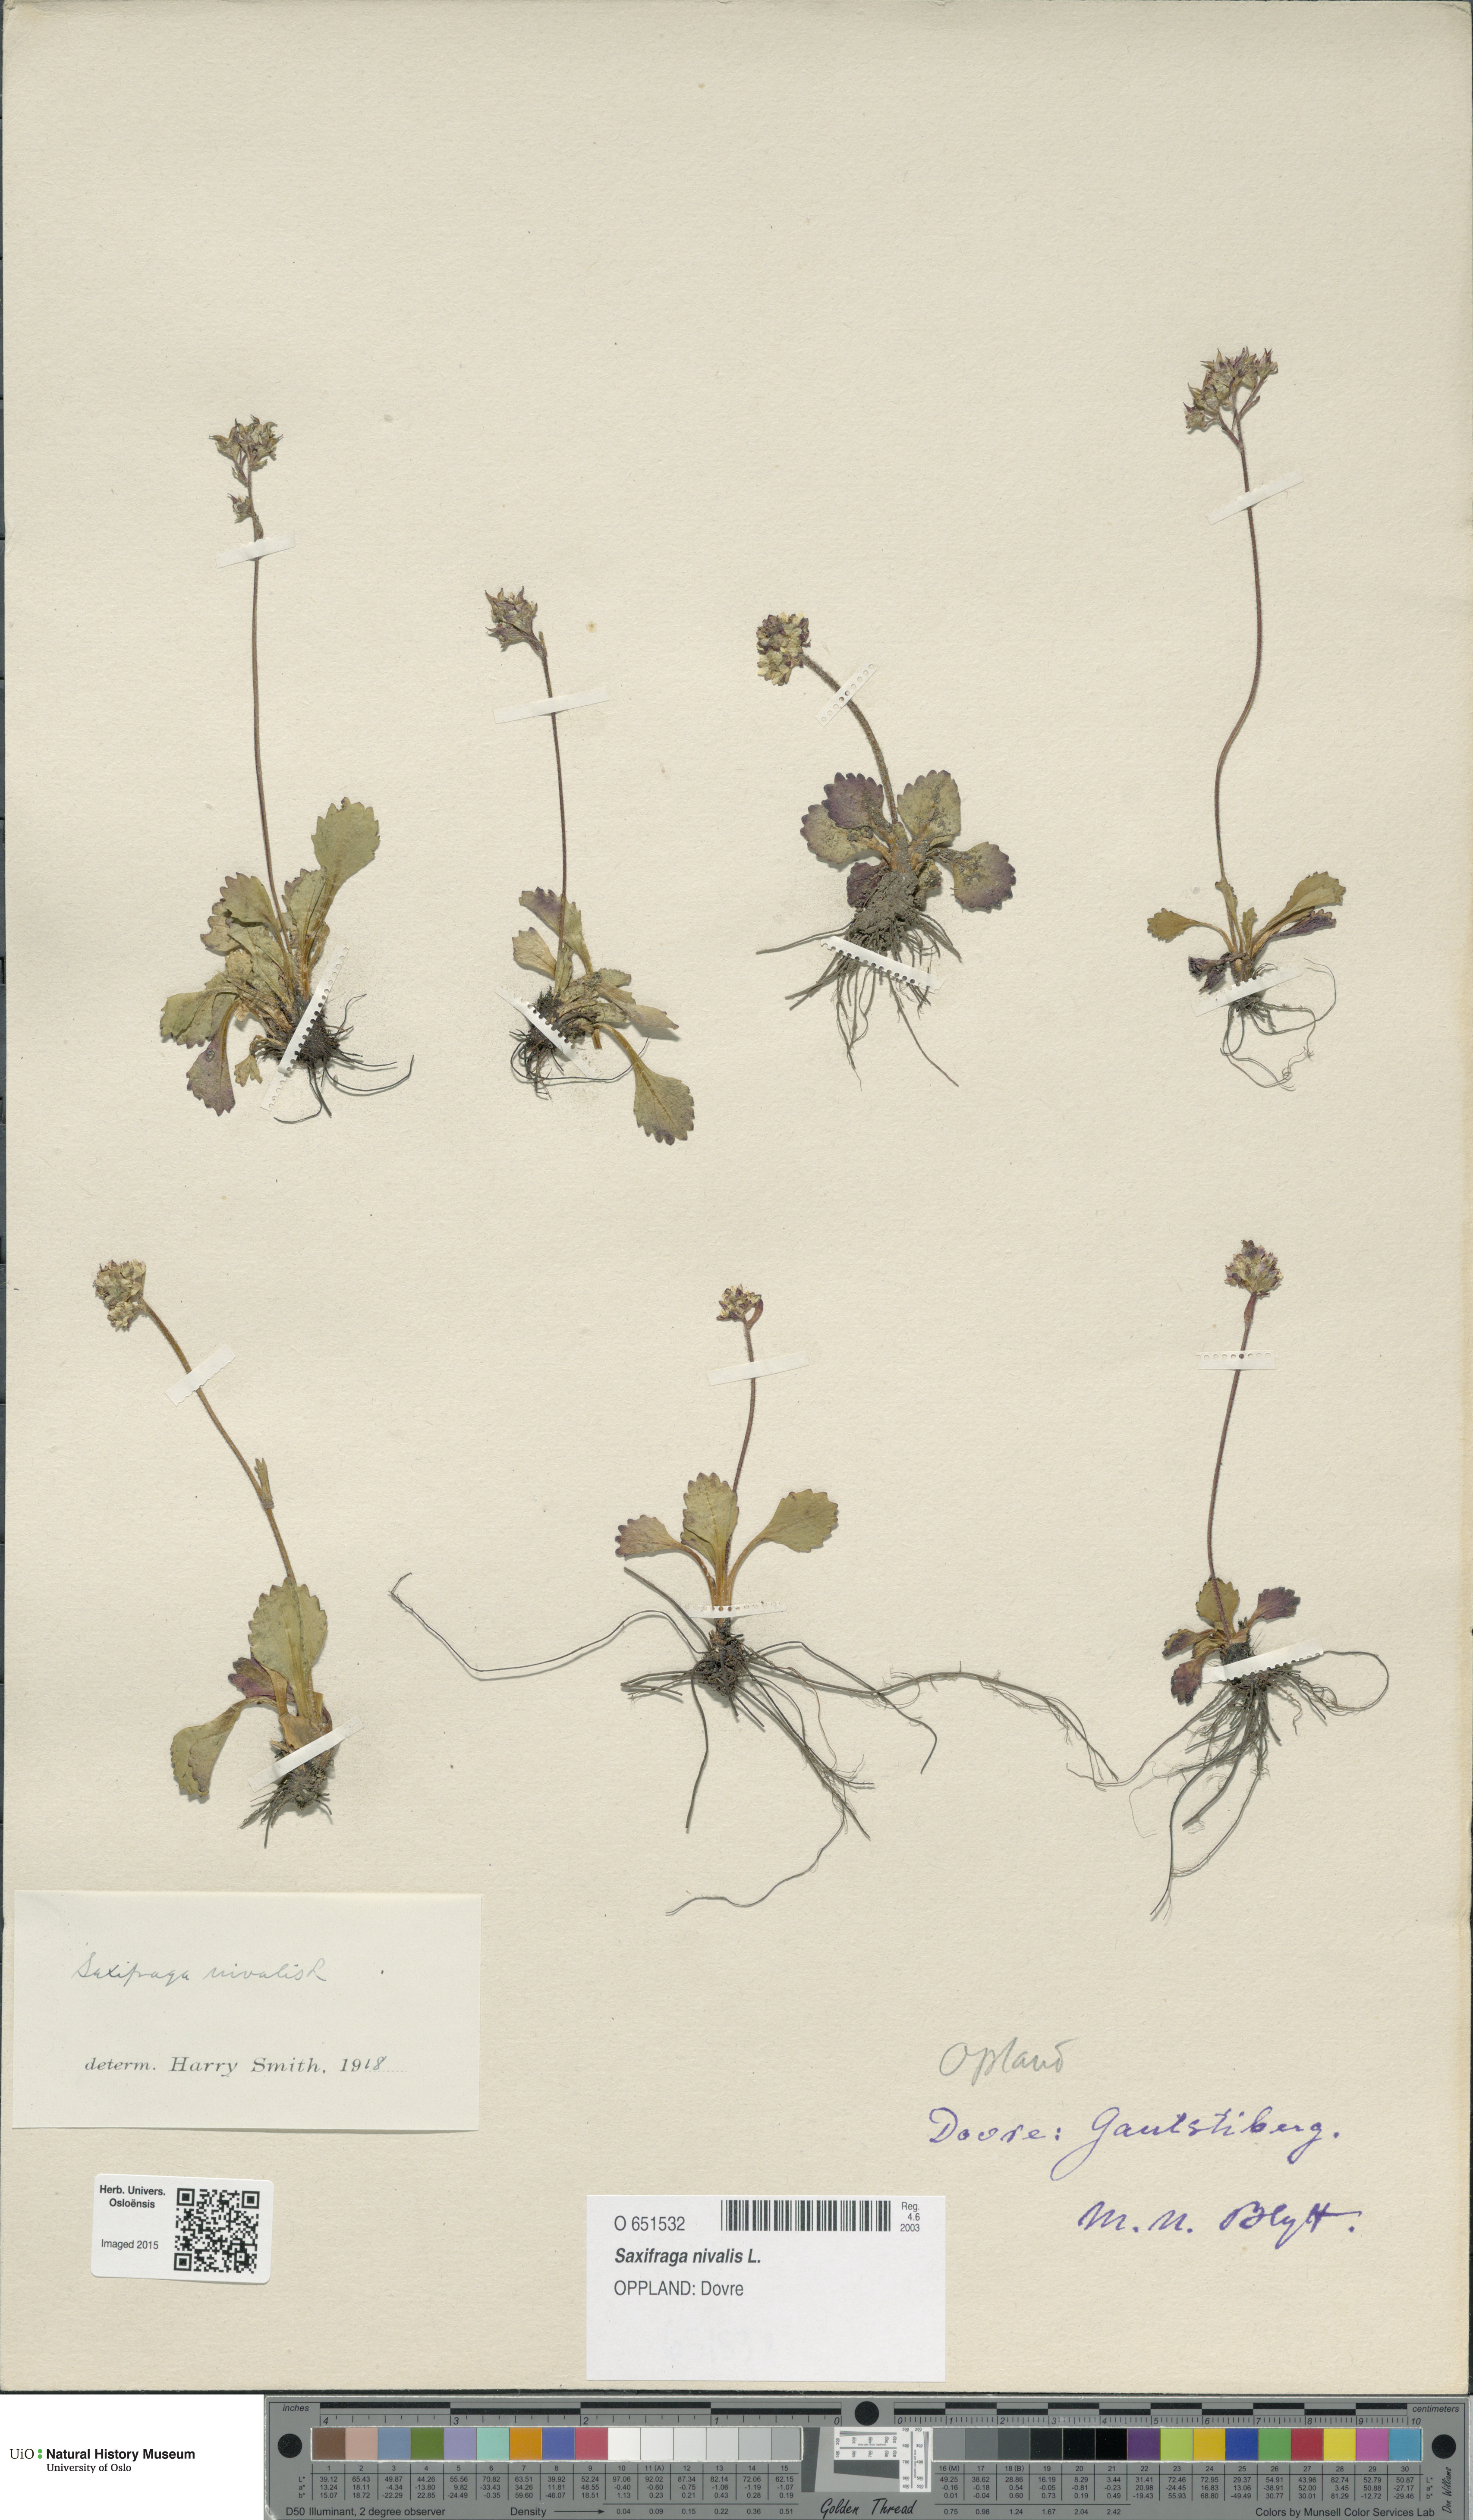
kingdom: Plantae
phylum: Tracheophyta
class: Magnoliopsida
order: Saxifragales
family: Saxifragaceae
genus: Micranthes
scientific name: Micranthes nivalis
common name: Alpine saxifrage
